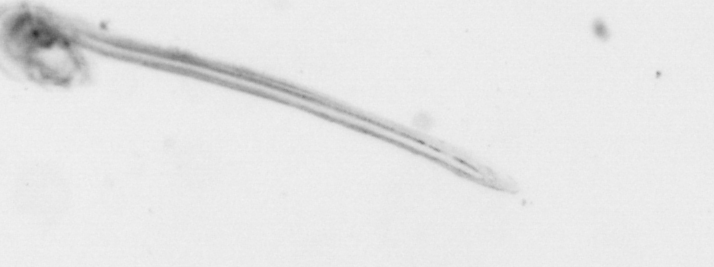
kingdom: Animalia
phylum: Chordata
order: Copelata
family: Fritillariidae
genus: Appendicularia
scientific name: Appendicularia
